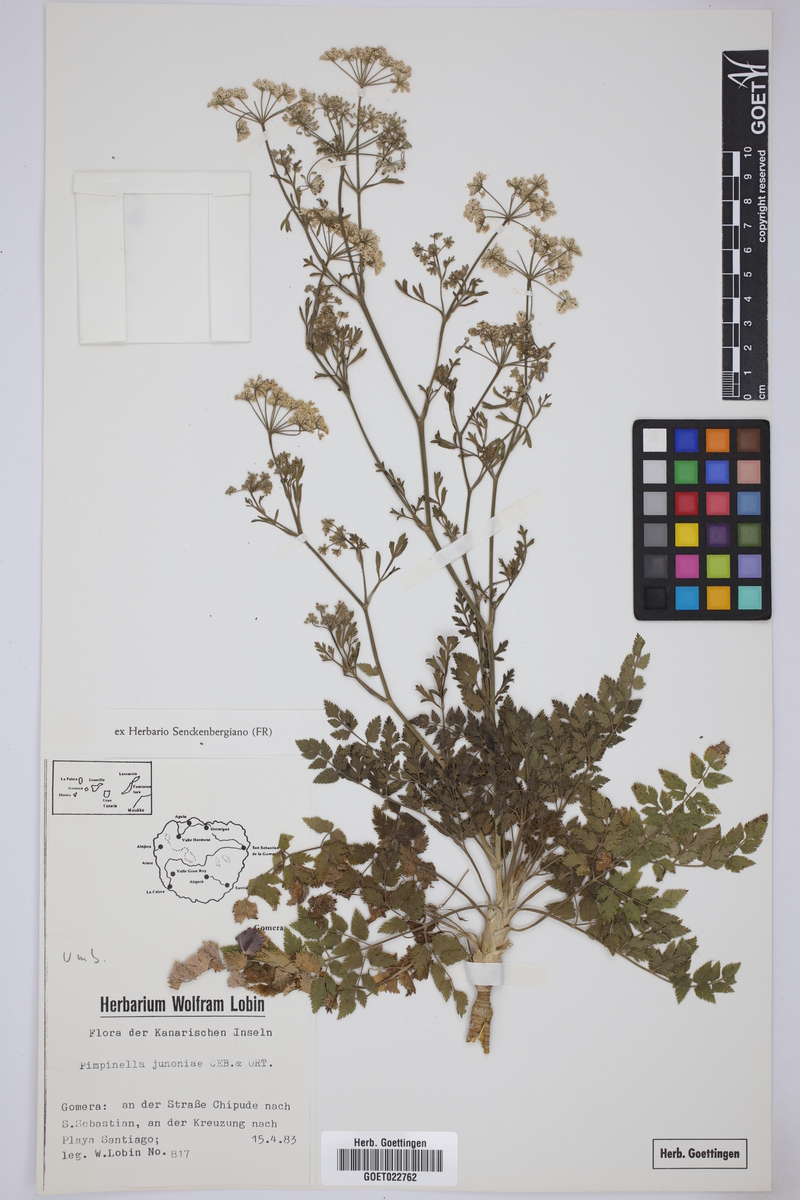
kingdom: Plantae
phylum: Tracheophyta
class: Magnoliopsida
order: Apiales
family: Apiaceae
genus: Pimpinella
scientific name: Pimpinella junionae
